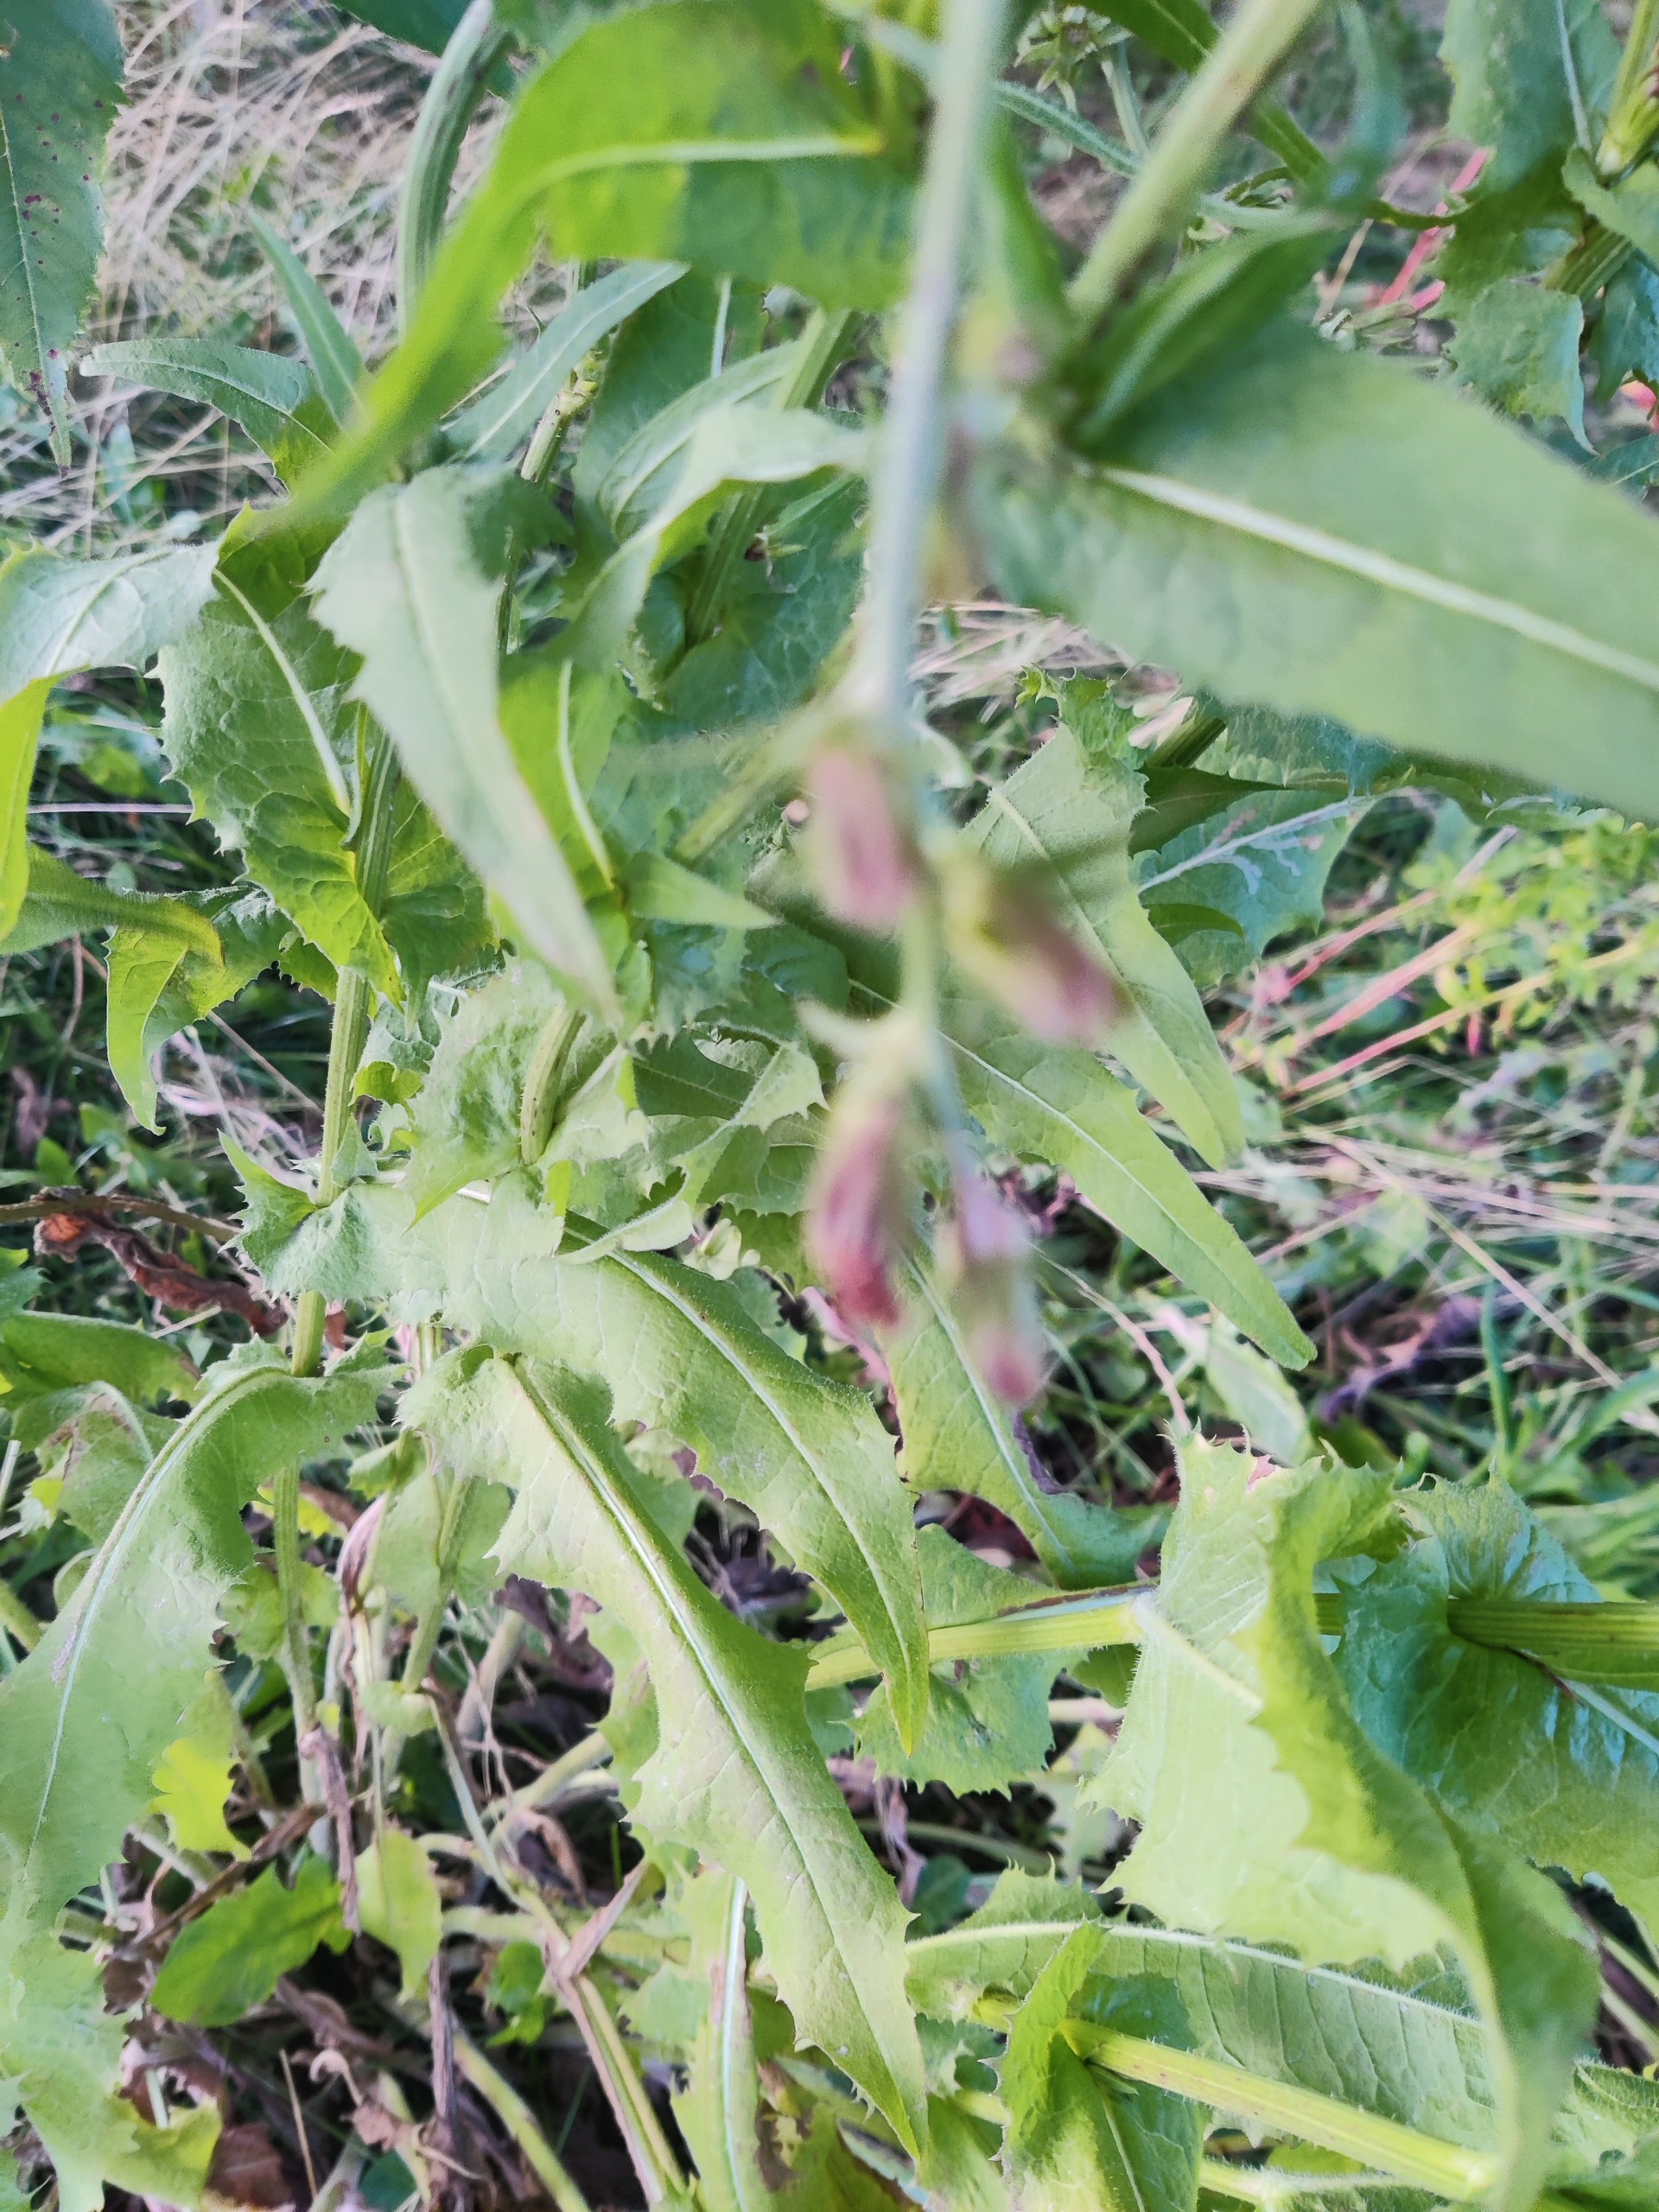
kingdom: Plantae
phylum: Tracheophyta
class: Magnoliopsida
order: Asterales
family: Asteraceae
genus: Cichorium
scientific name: Cichorium intybus
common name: Cikorie
